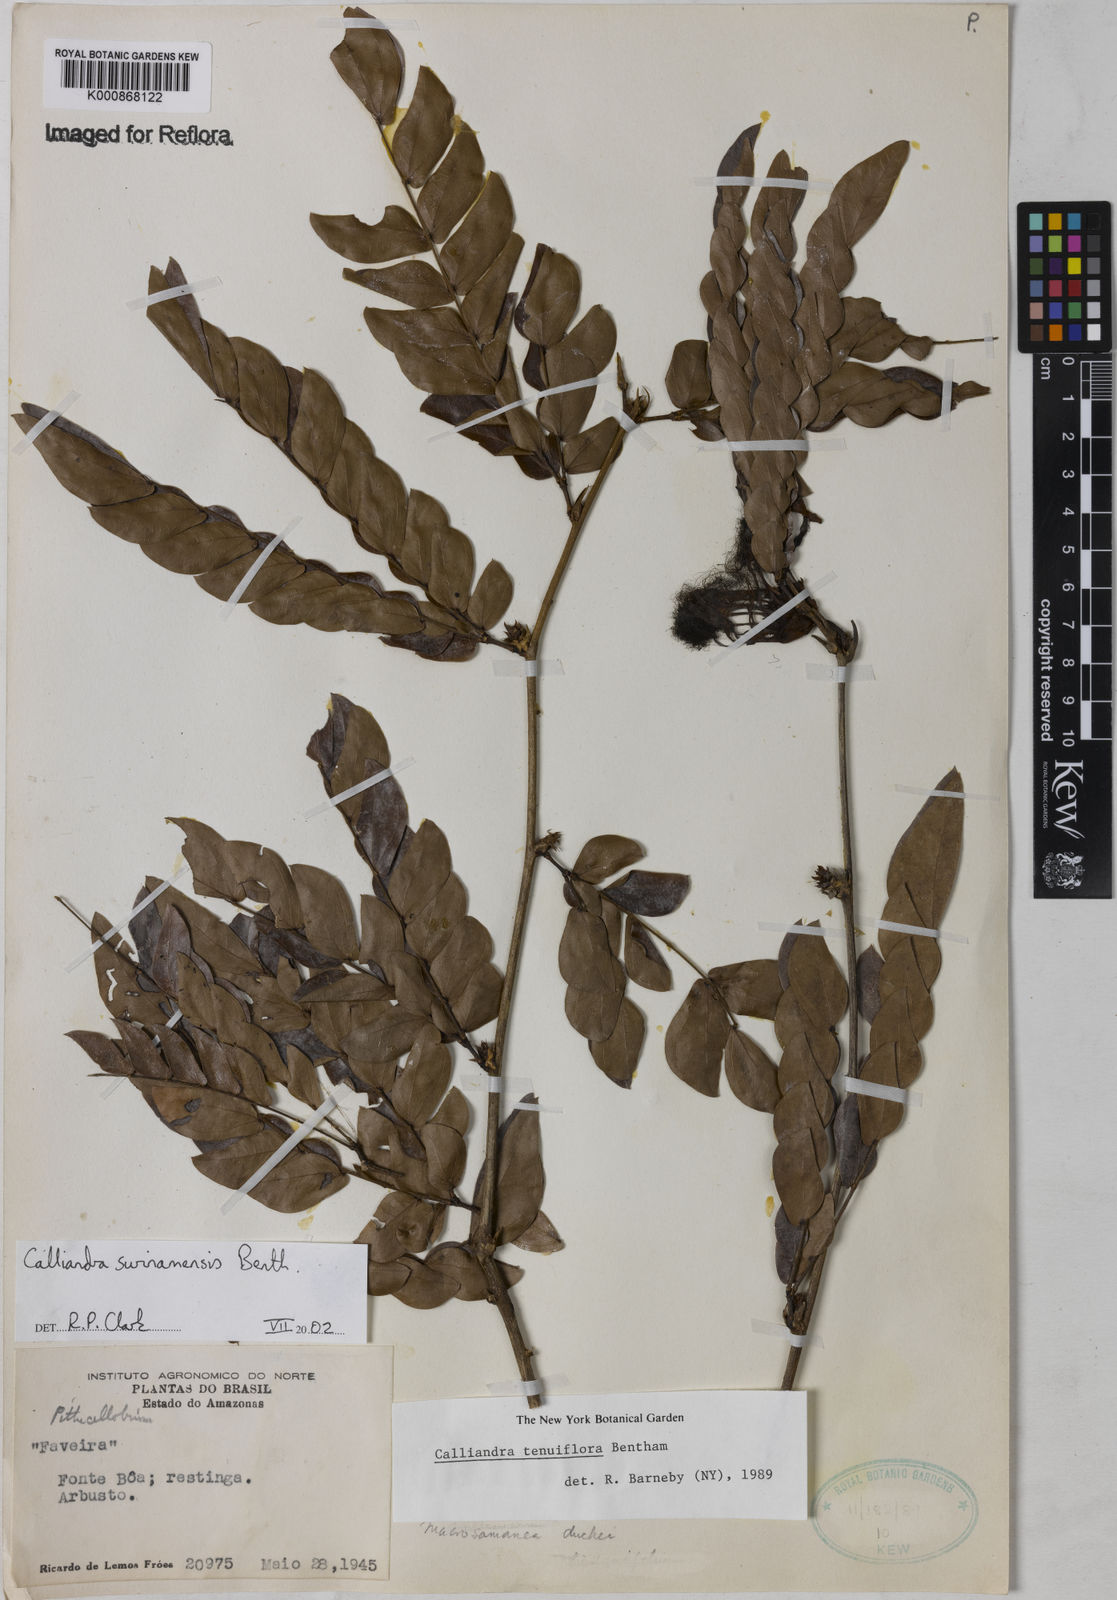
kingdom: Plantae
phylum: Tracheophyta
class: Magnoliopsida
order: Fabales
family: Fabaceae
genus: Calliandra
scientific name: Calliandra surinamensis
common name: Pink powder puff
